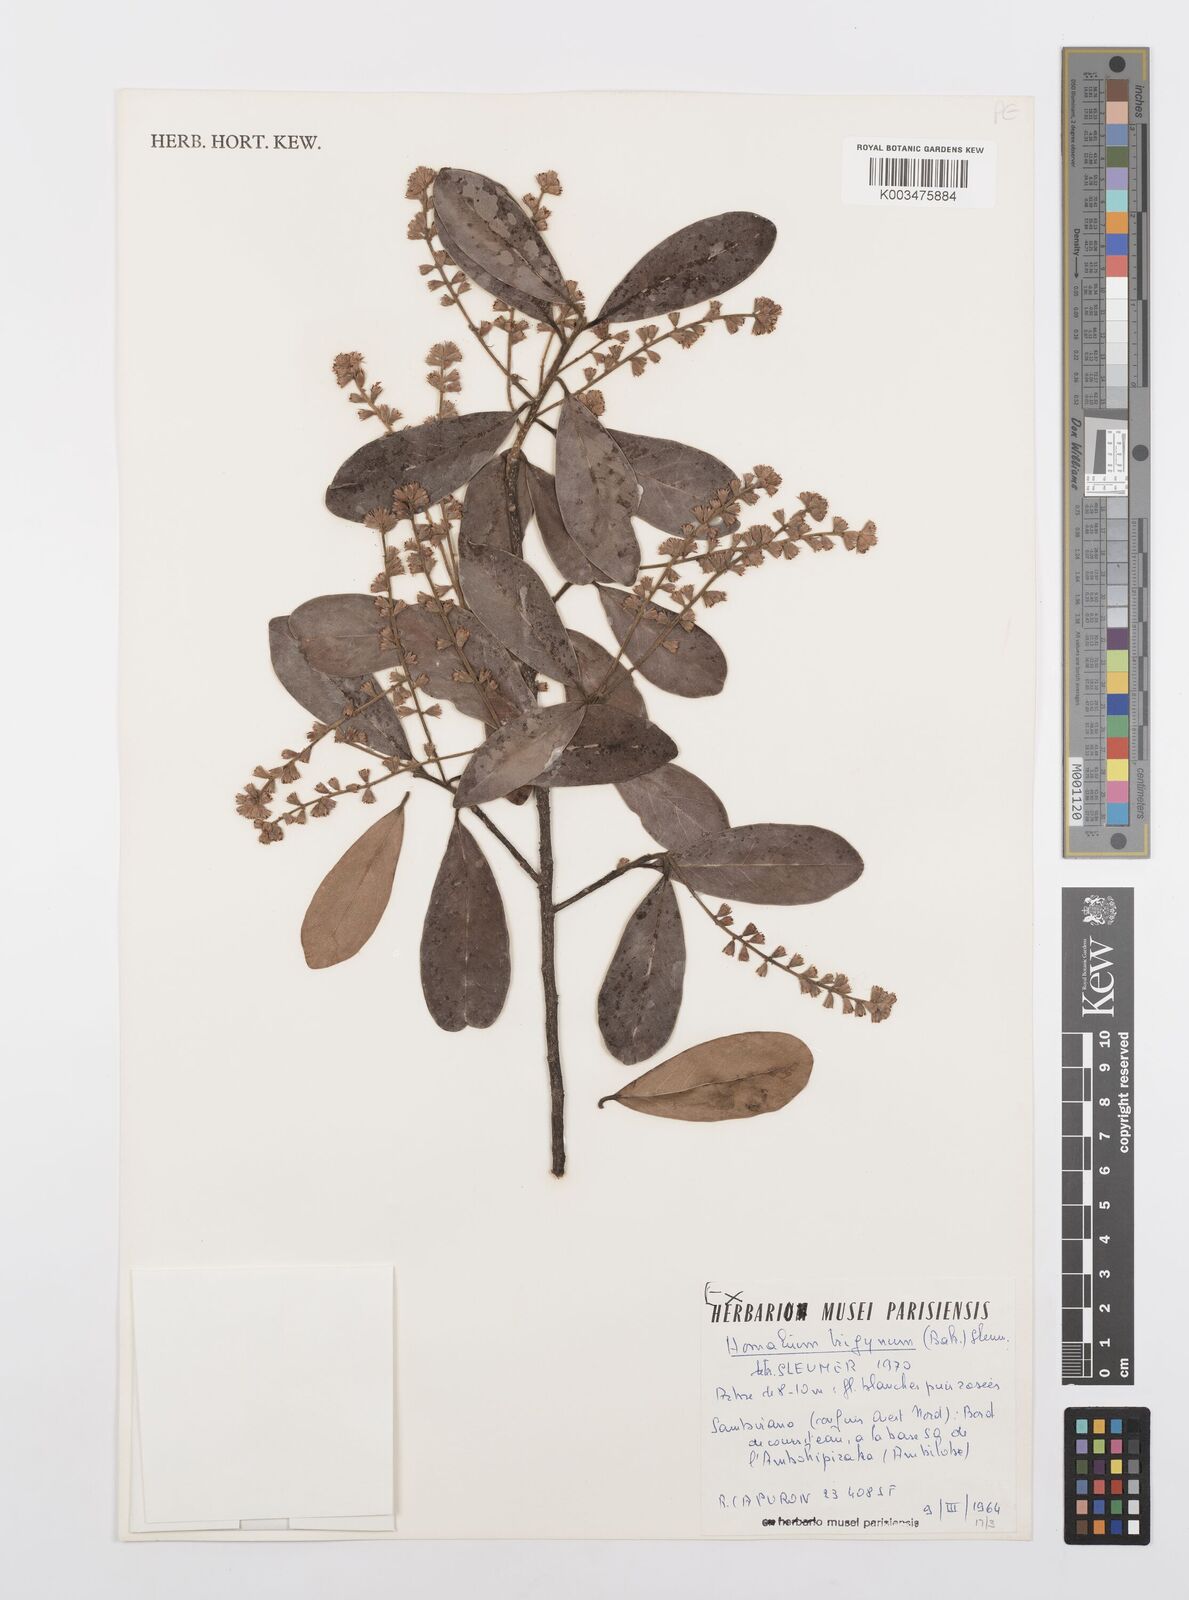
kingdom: Plantae
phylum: Tracheophyta
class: Magnoliopsida
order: Malpighiales
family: Salicaceae
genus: Homalium
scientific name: Homalium trigynum
